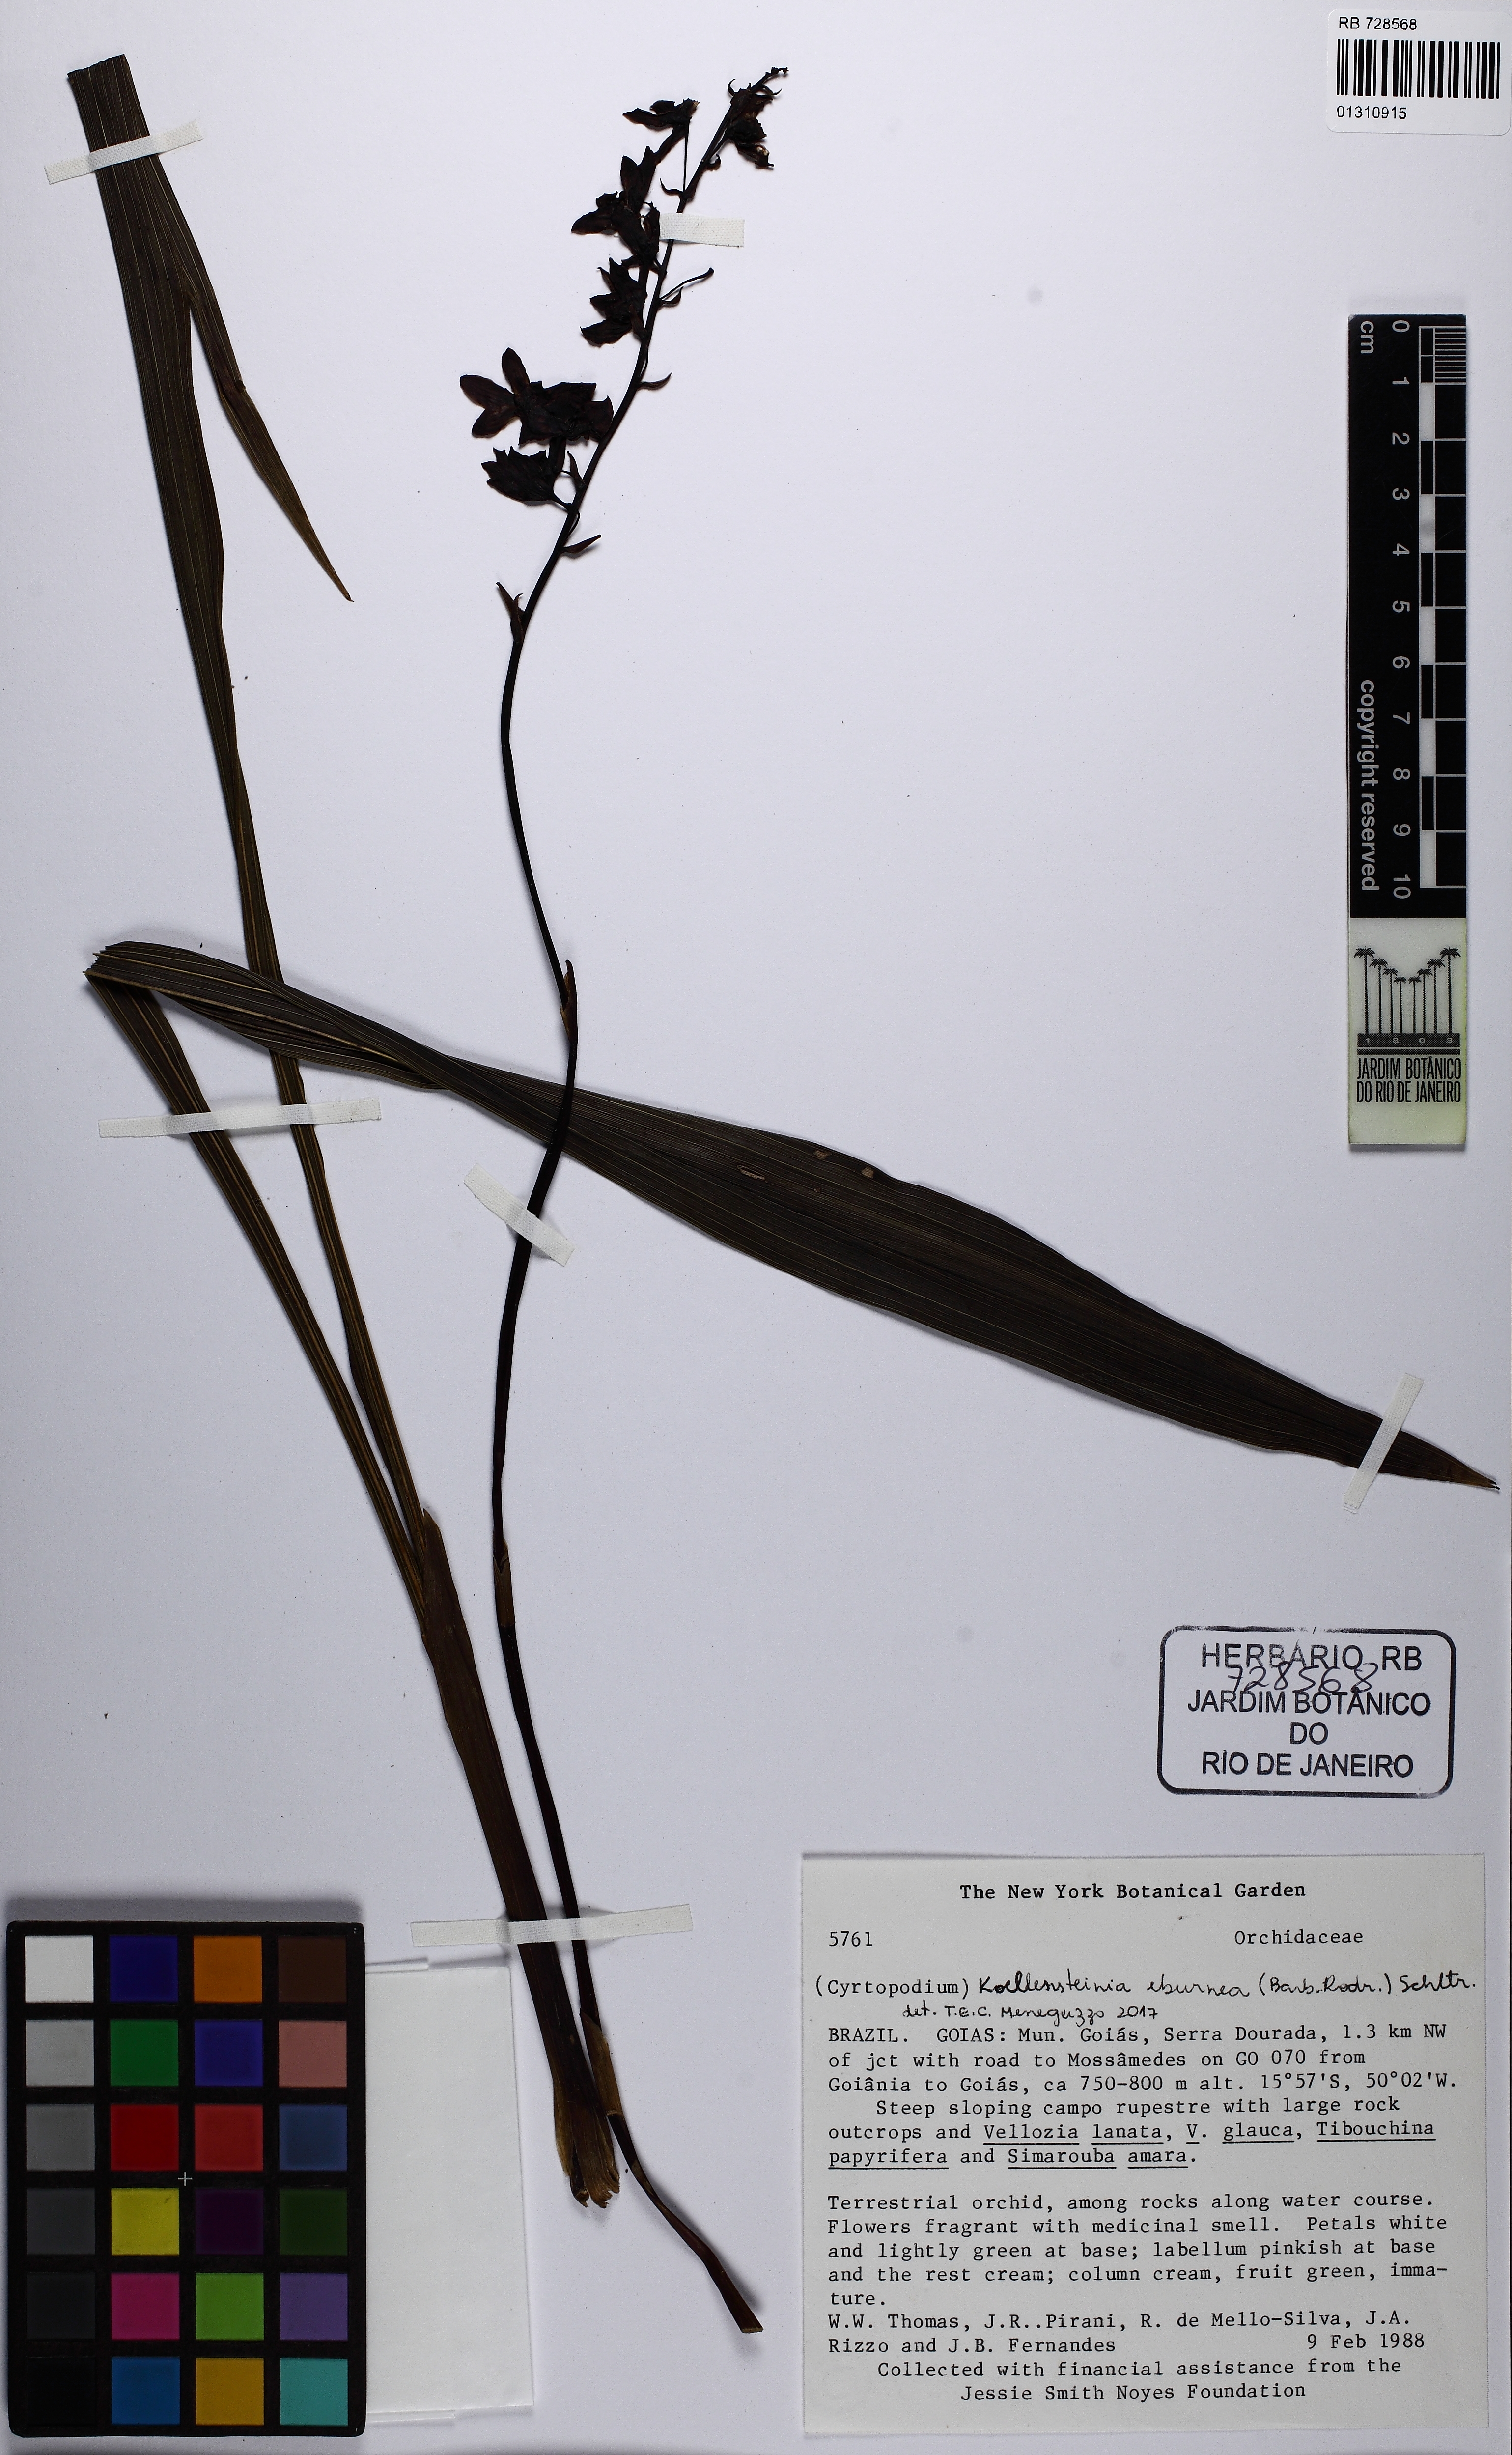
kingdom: Plantae
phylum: Tracheophyta
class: Liliopsida
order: Asparagales
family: Orchidaceae
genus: Koellensteinia
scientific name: Koellensteinia eburnea
